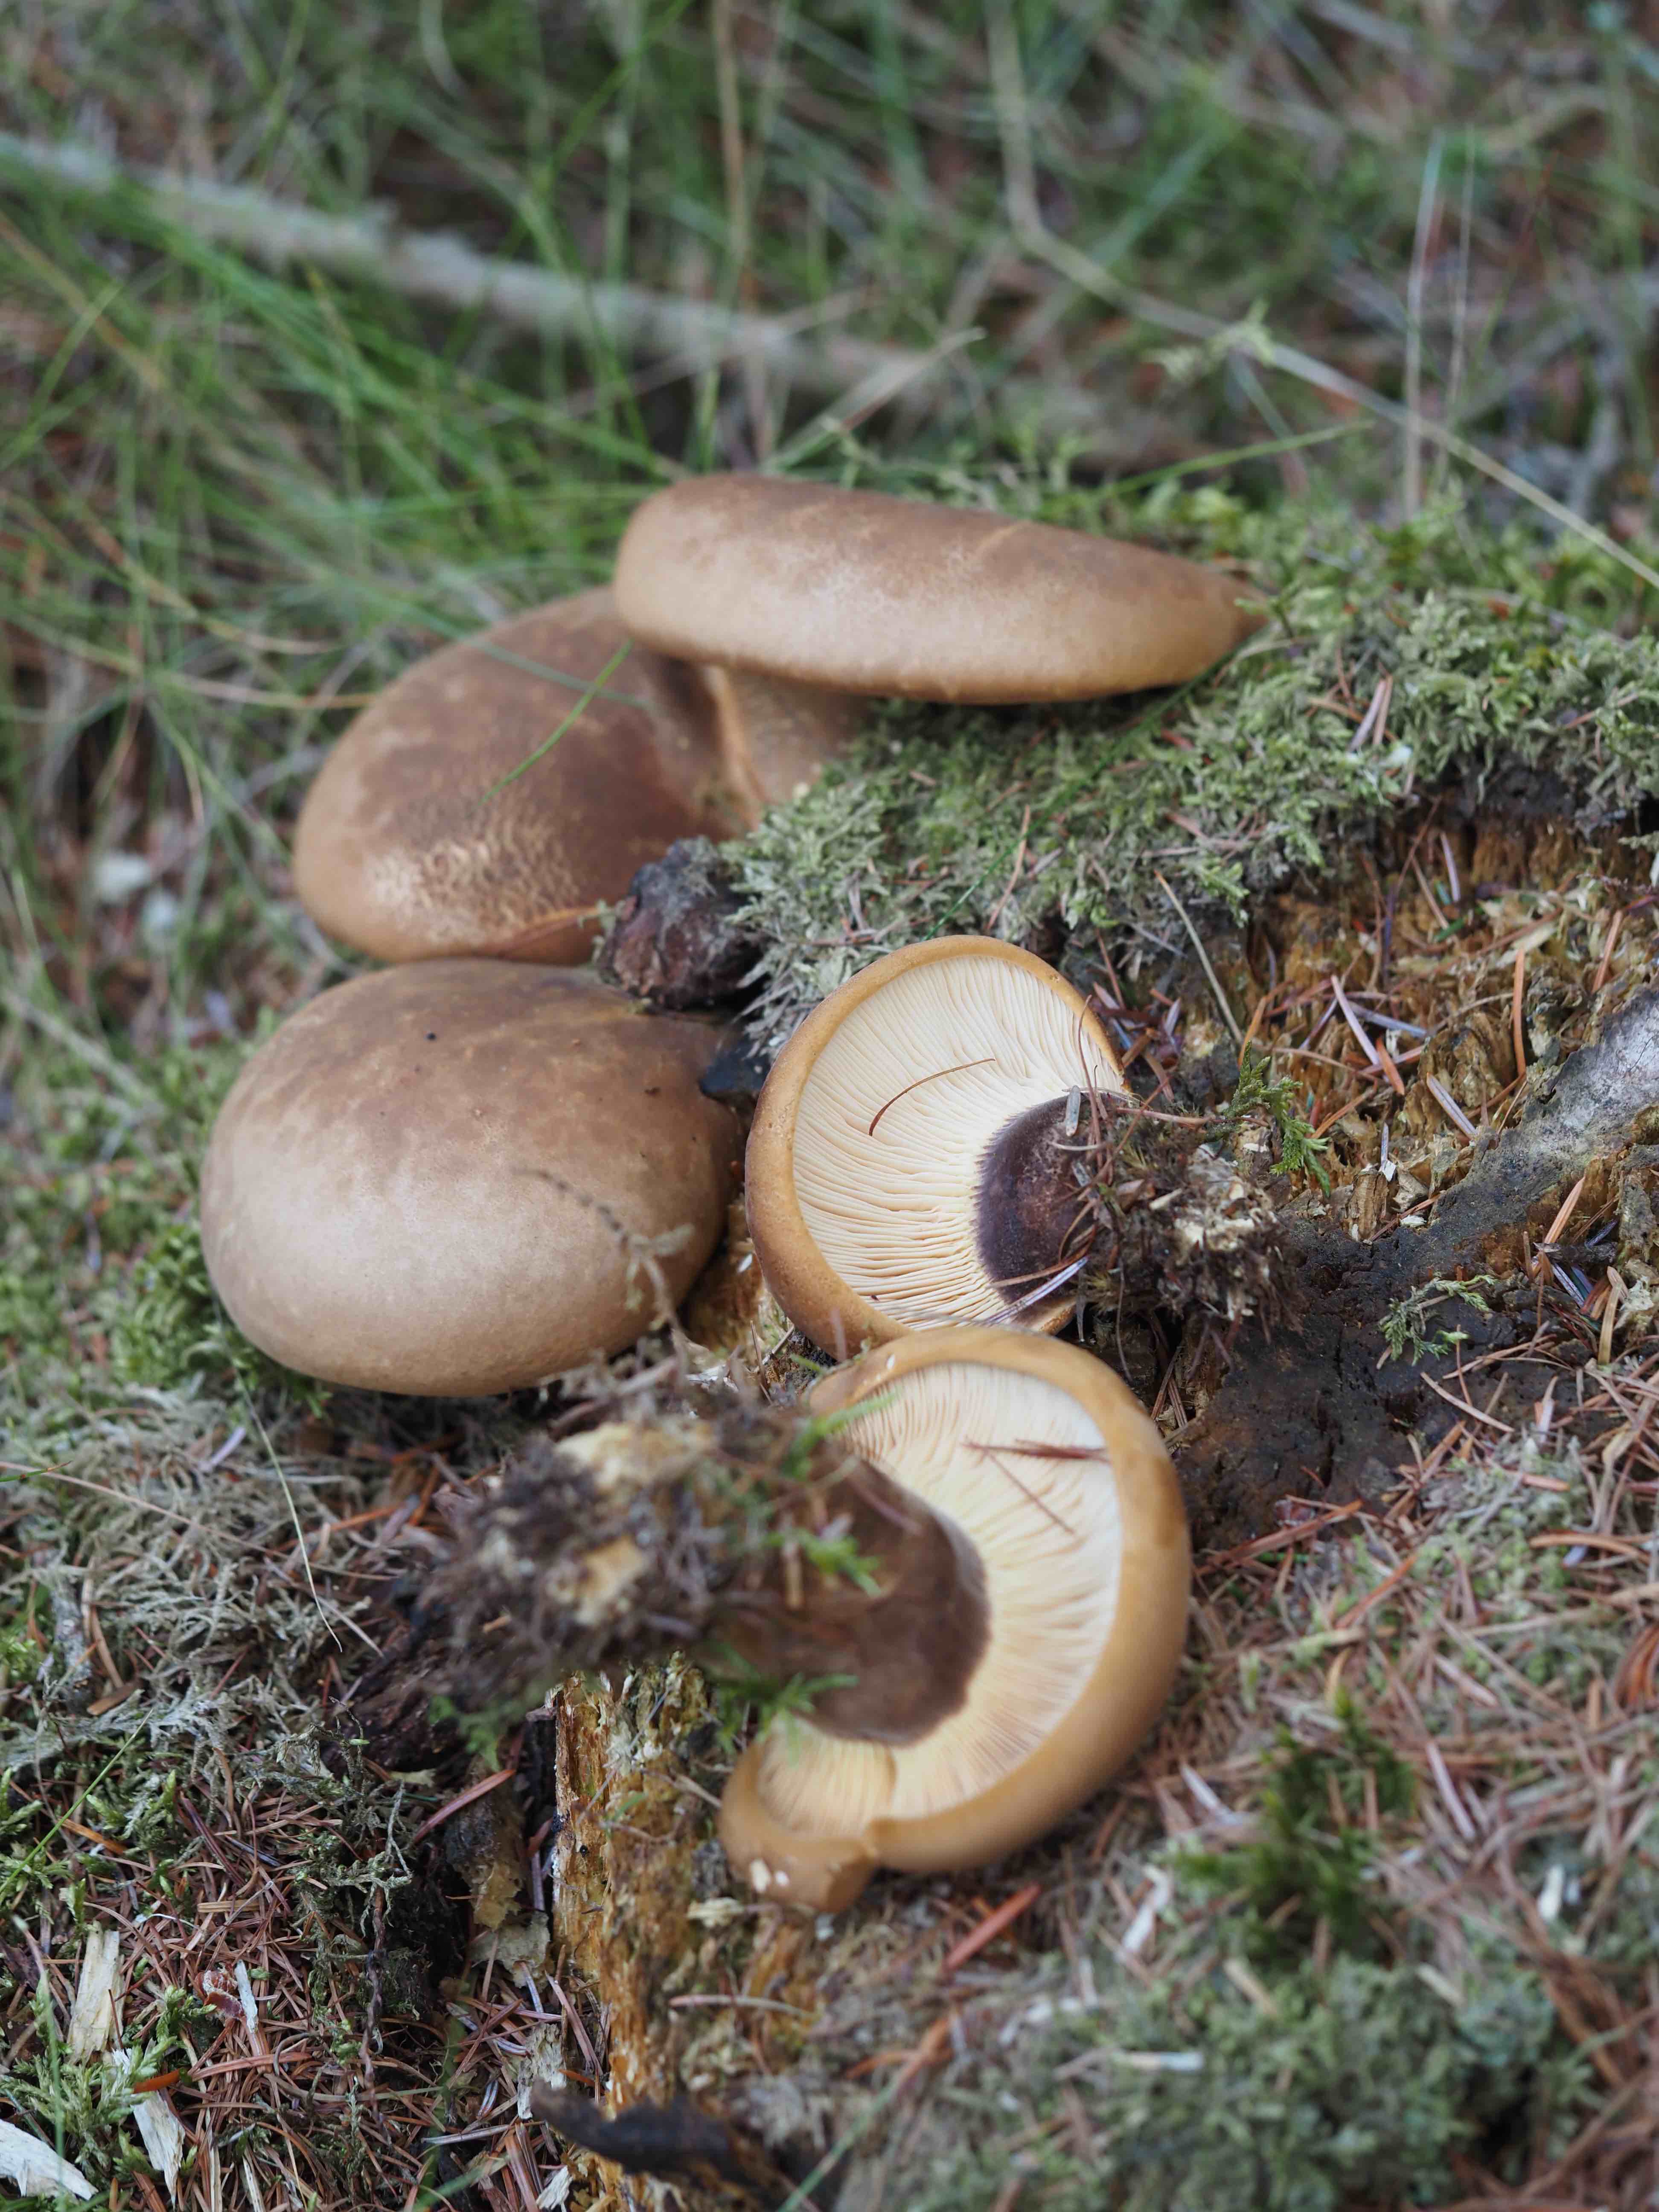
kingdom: Fungi
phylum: Basidiomycota
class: Agaricomycetes
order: Boletales
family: Tapinellaceae
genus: Tapinella
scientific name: Tapinella atrotomentosa
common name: sortfiltet viftesvamp
